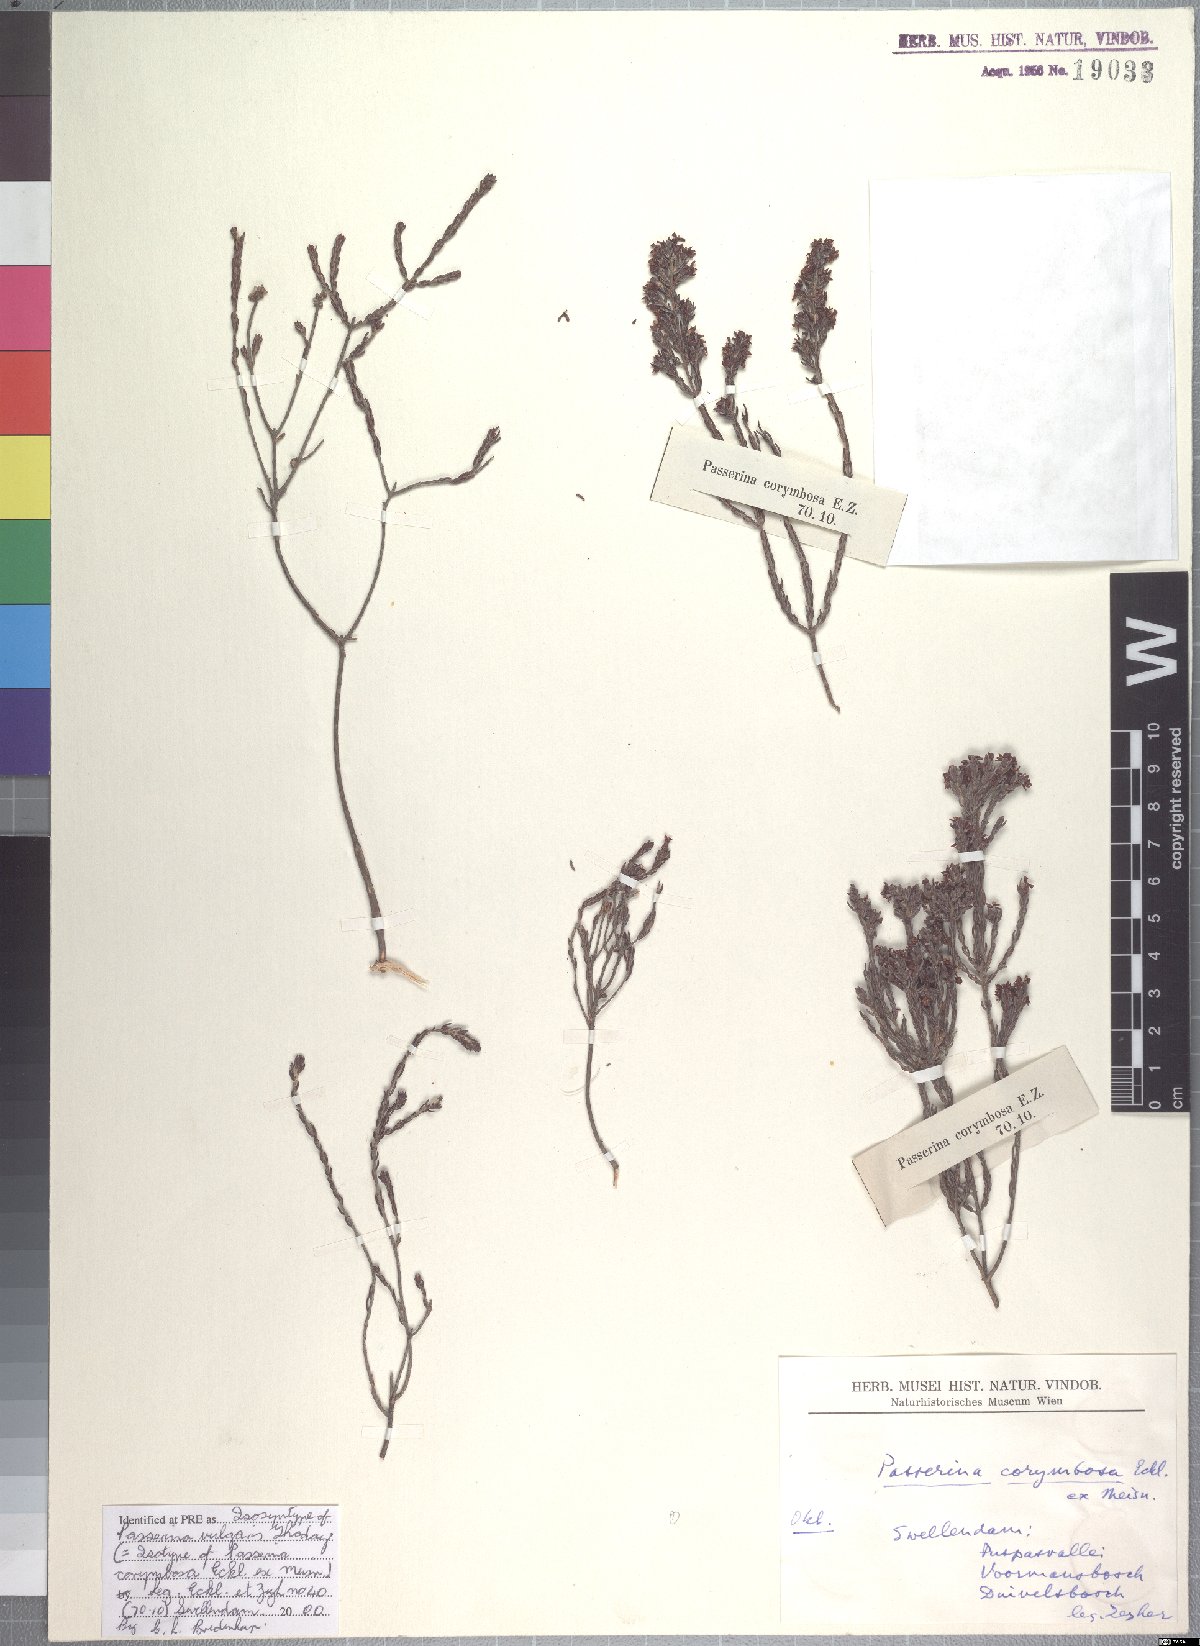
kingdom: Plantae
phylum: Tracheophyta
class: Magnoliopsida
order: Malvales
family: Thymelaeaceae
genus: Passerina
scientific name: Passerina corymbosa
